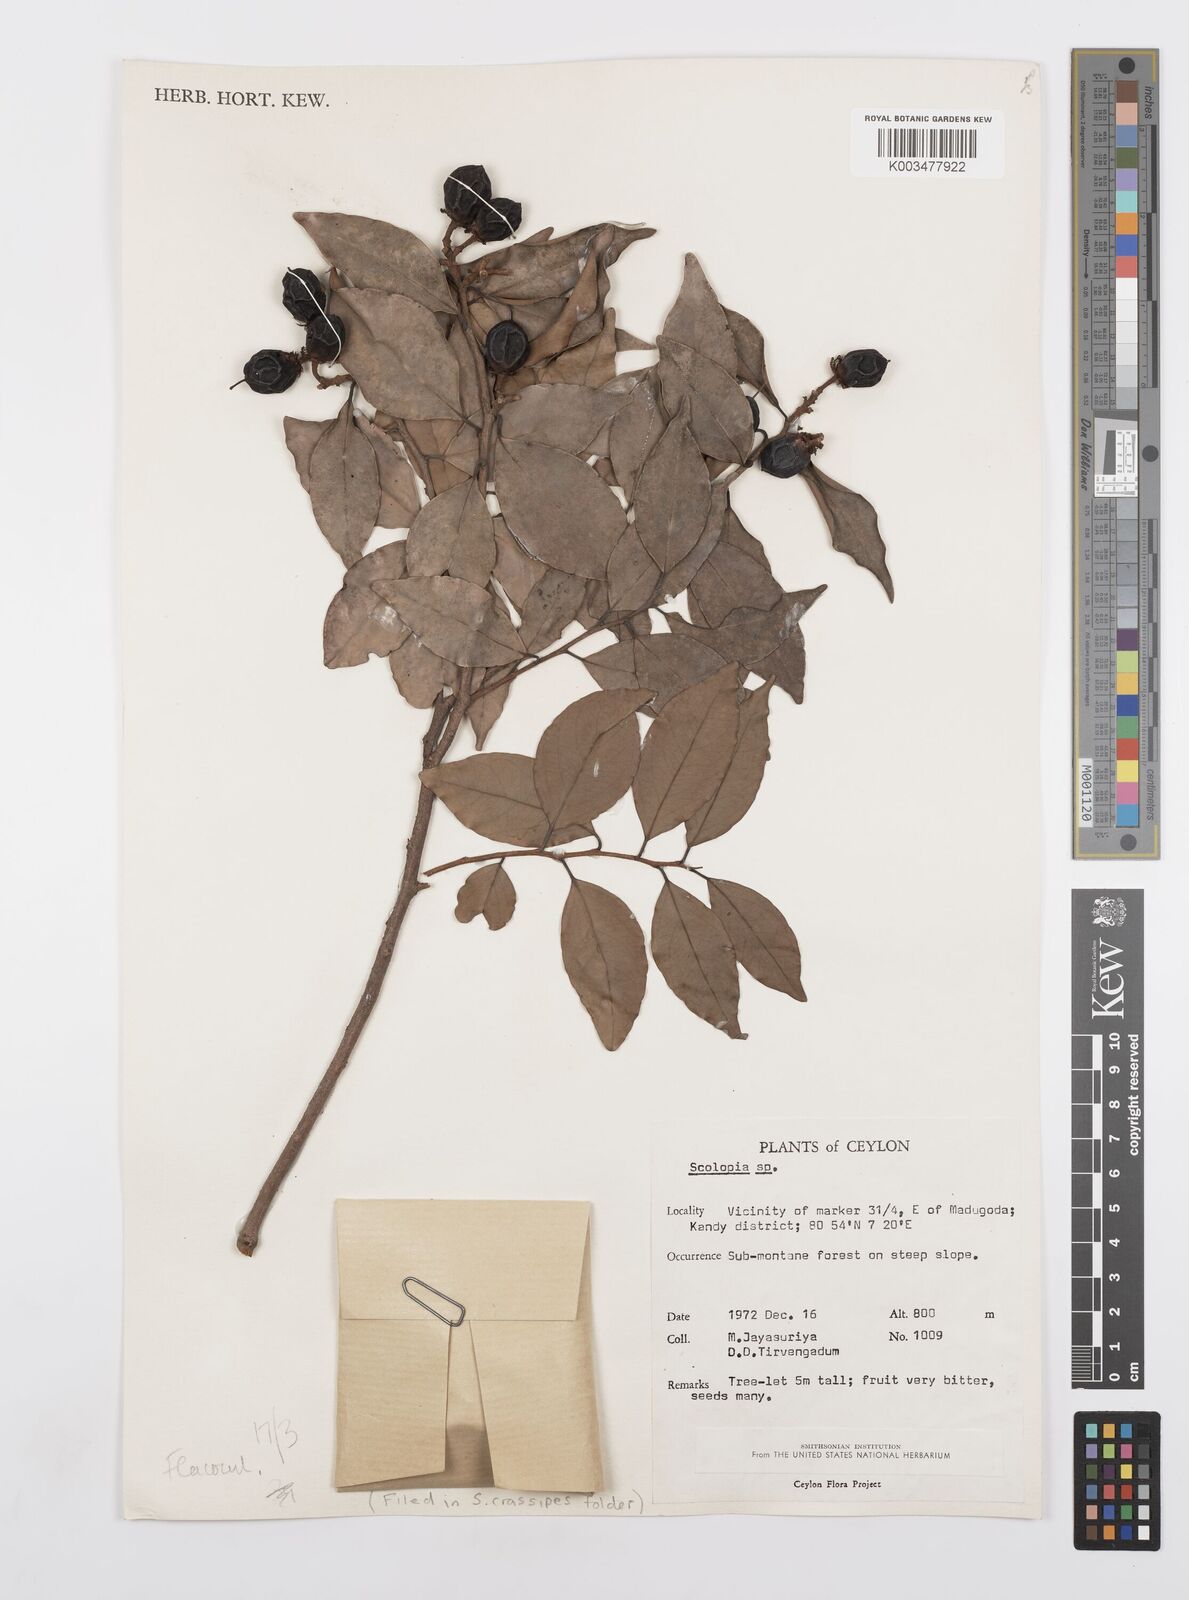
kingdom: Plantae
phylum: Tracheophyta
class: Magnoliopsida
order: Malpighiales
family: Salicaceae
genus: Scolopia
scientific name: Scolopia crassipes
